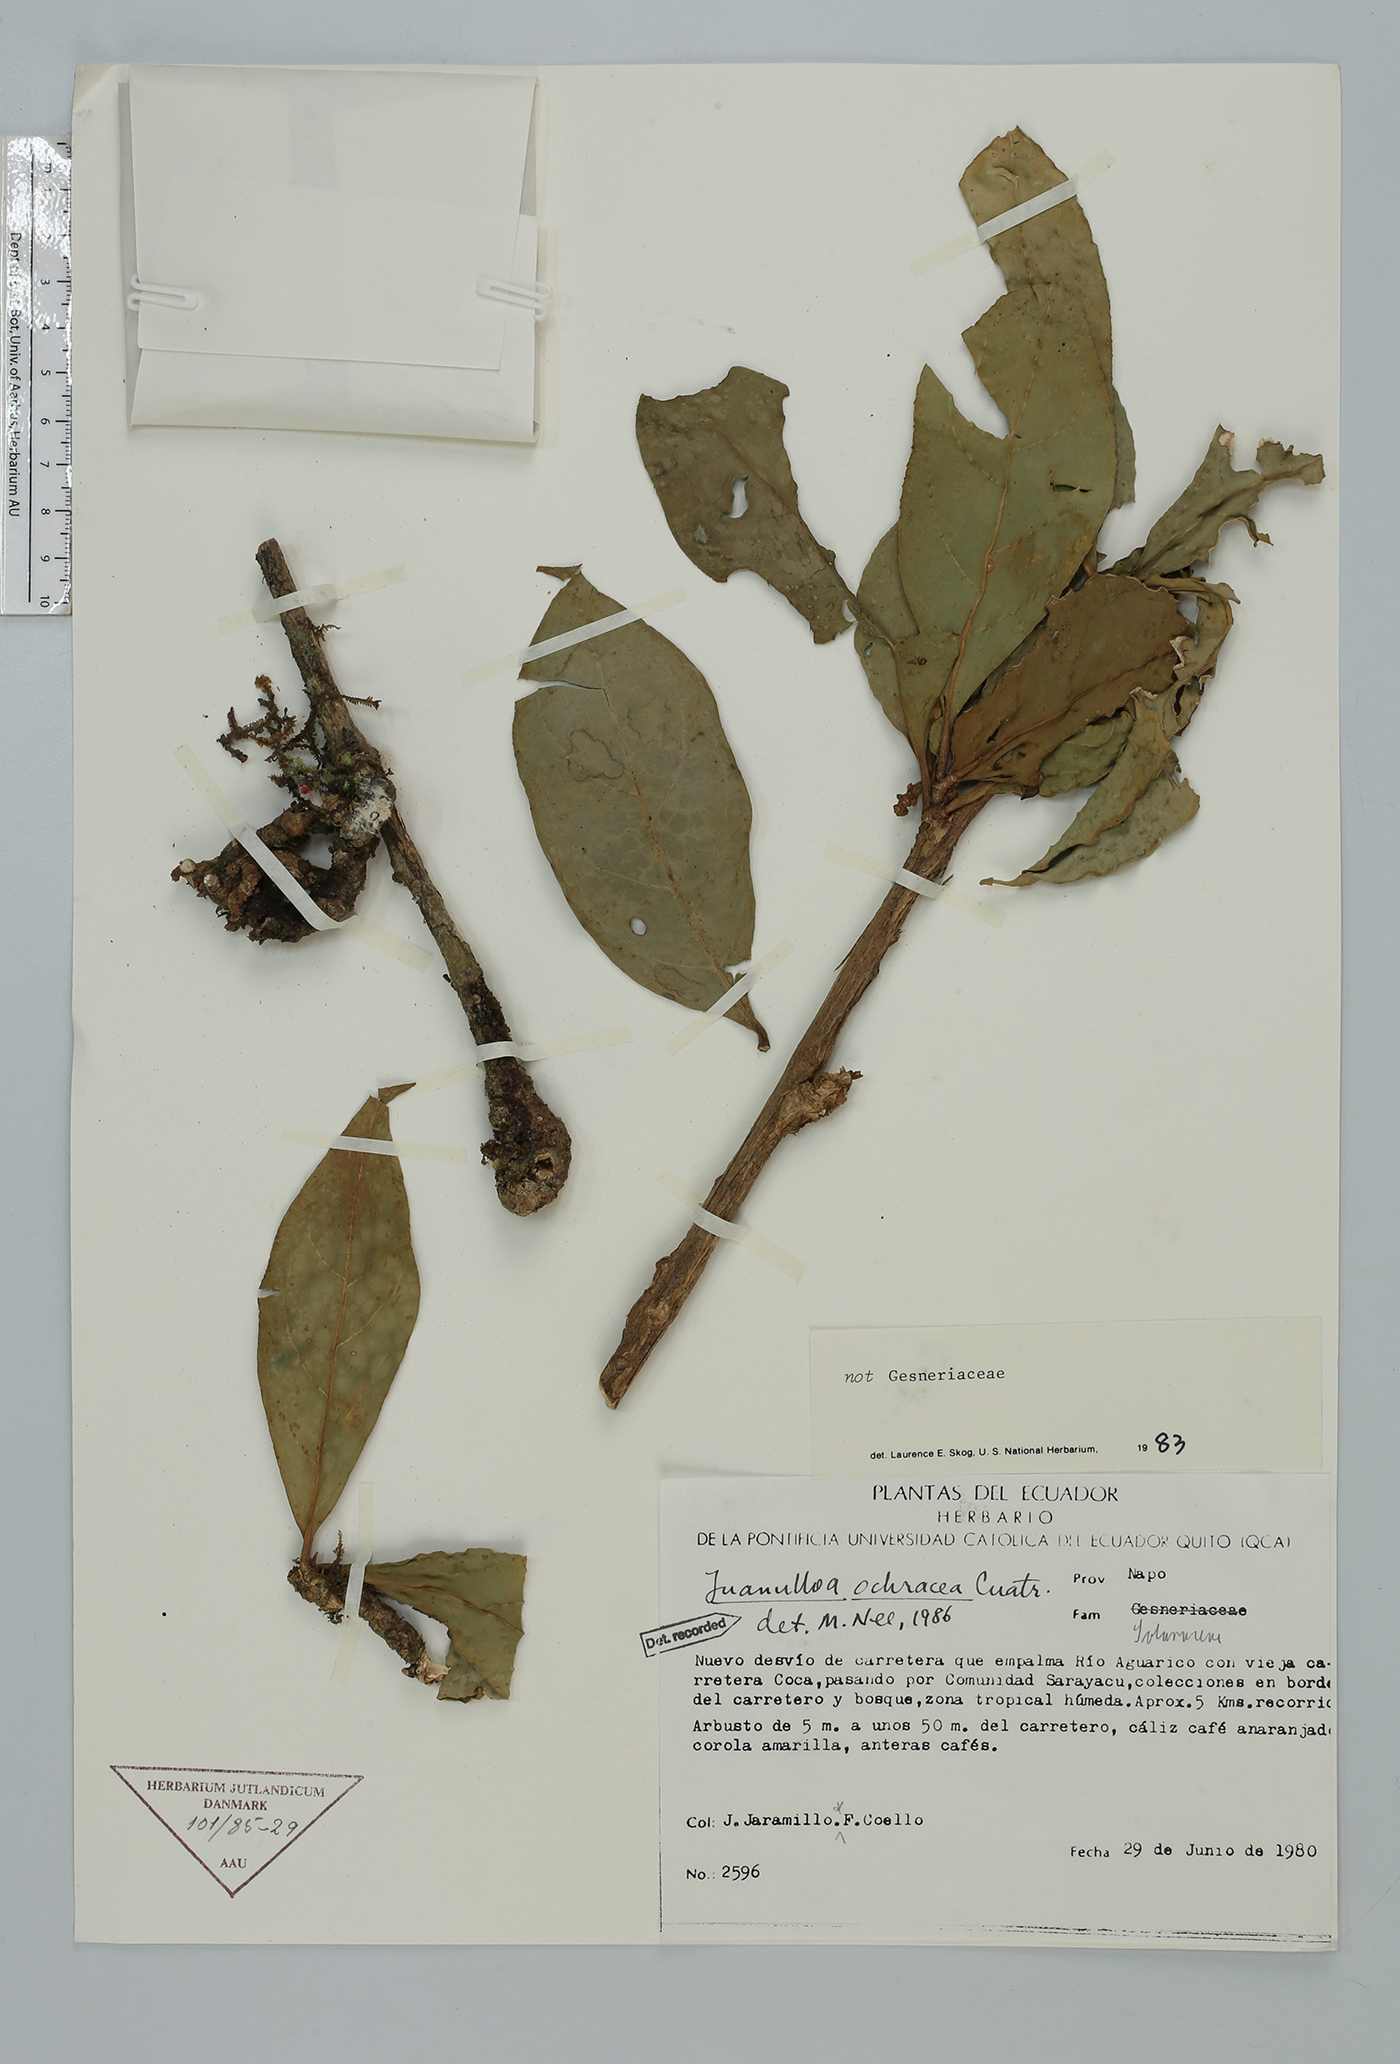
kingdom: Plantae
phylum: Tracheophyta
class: Magnoliopsida
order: Solanales
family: Solanaceae
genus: Hawkesiophyton
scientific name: Hawkesiophyton ochraceum
